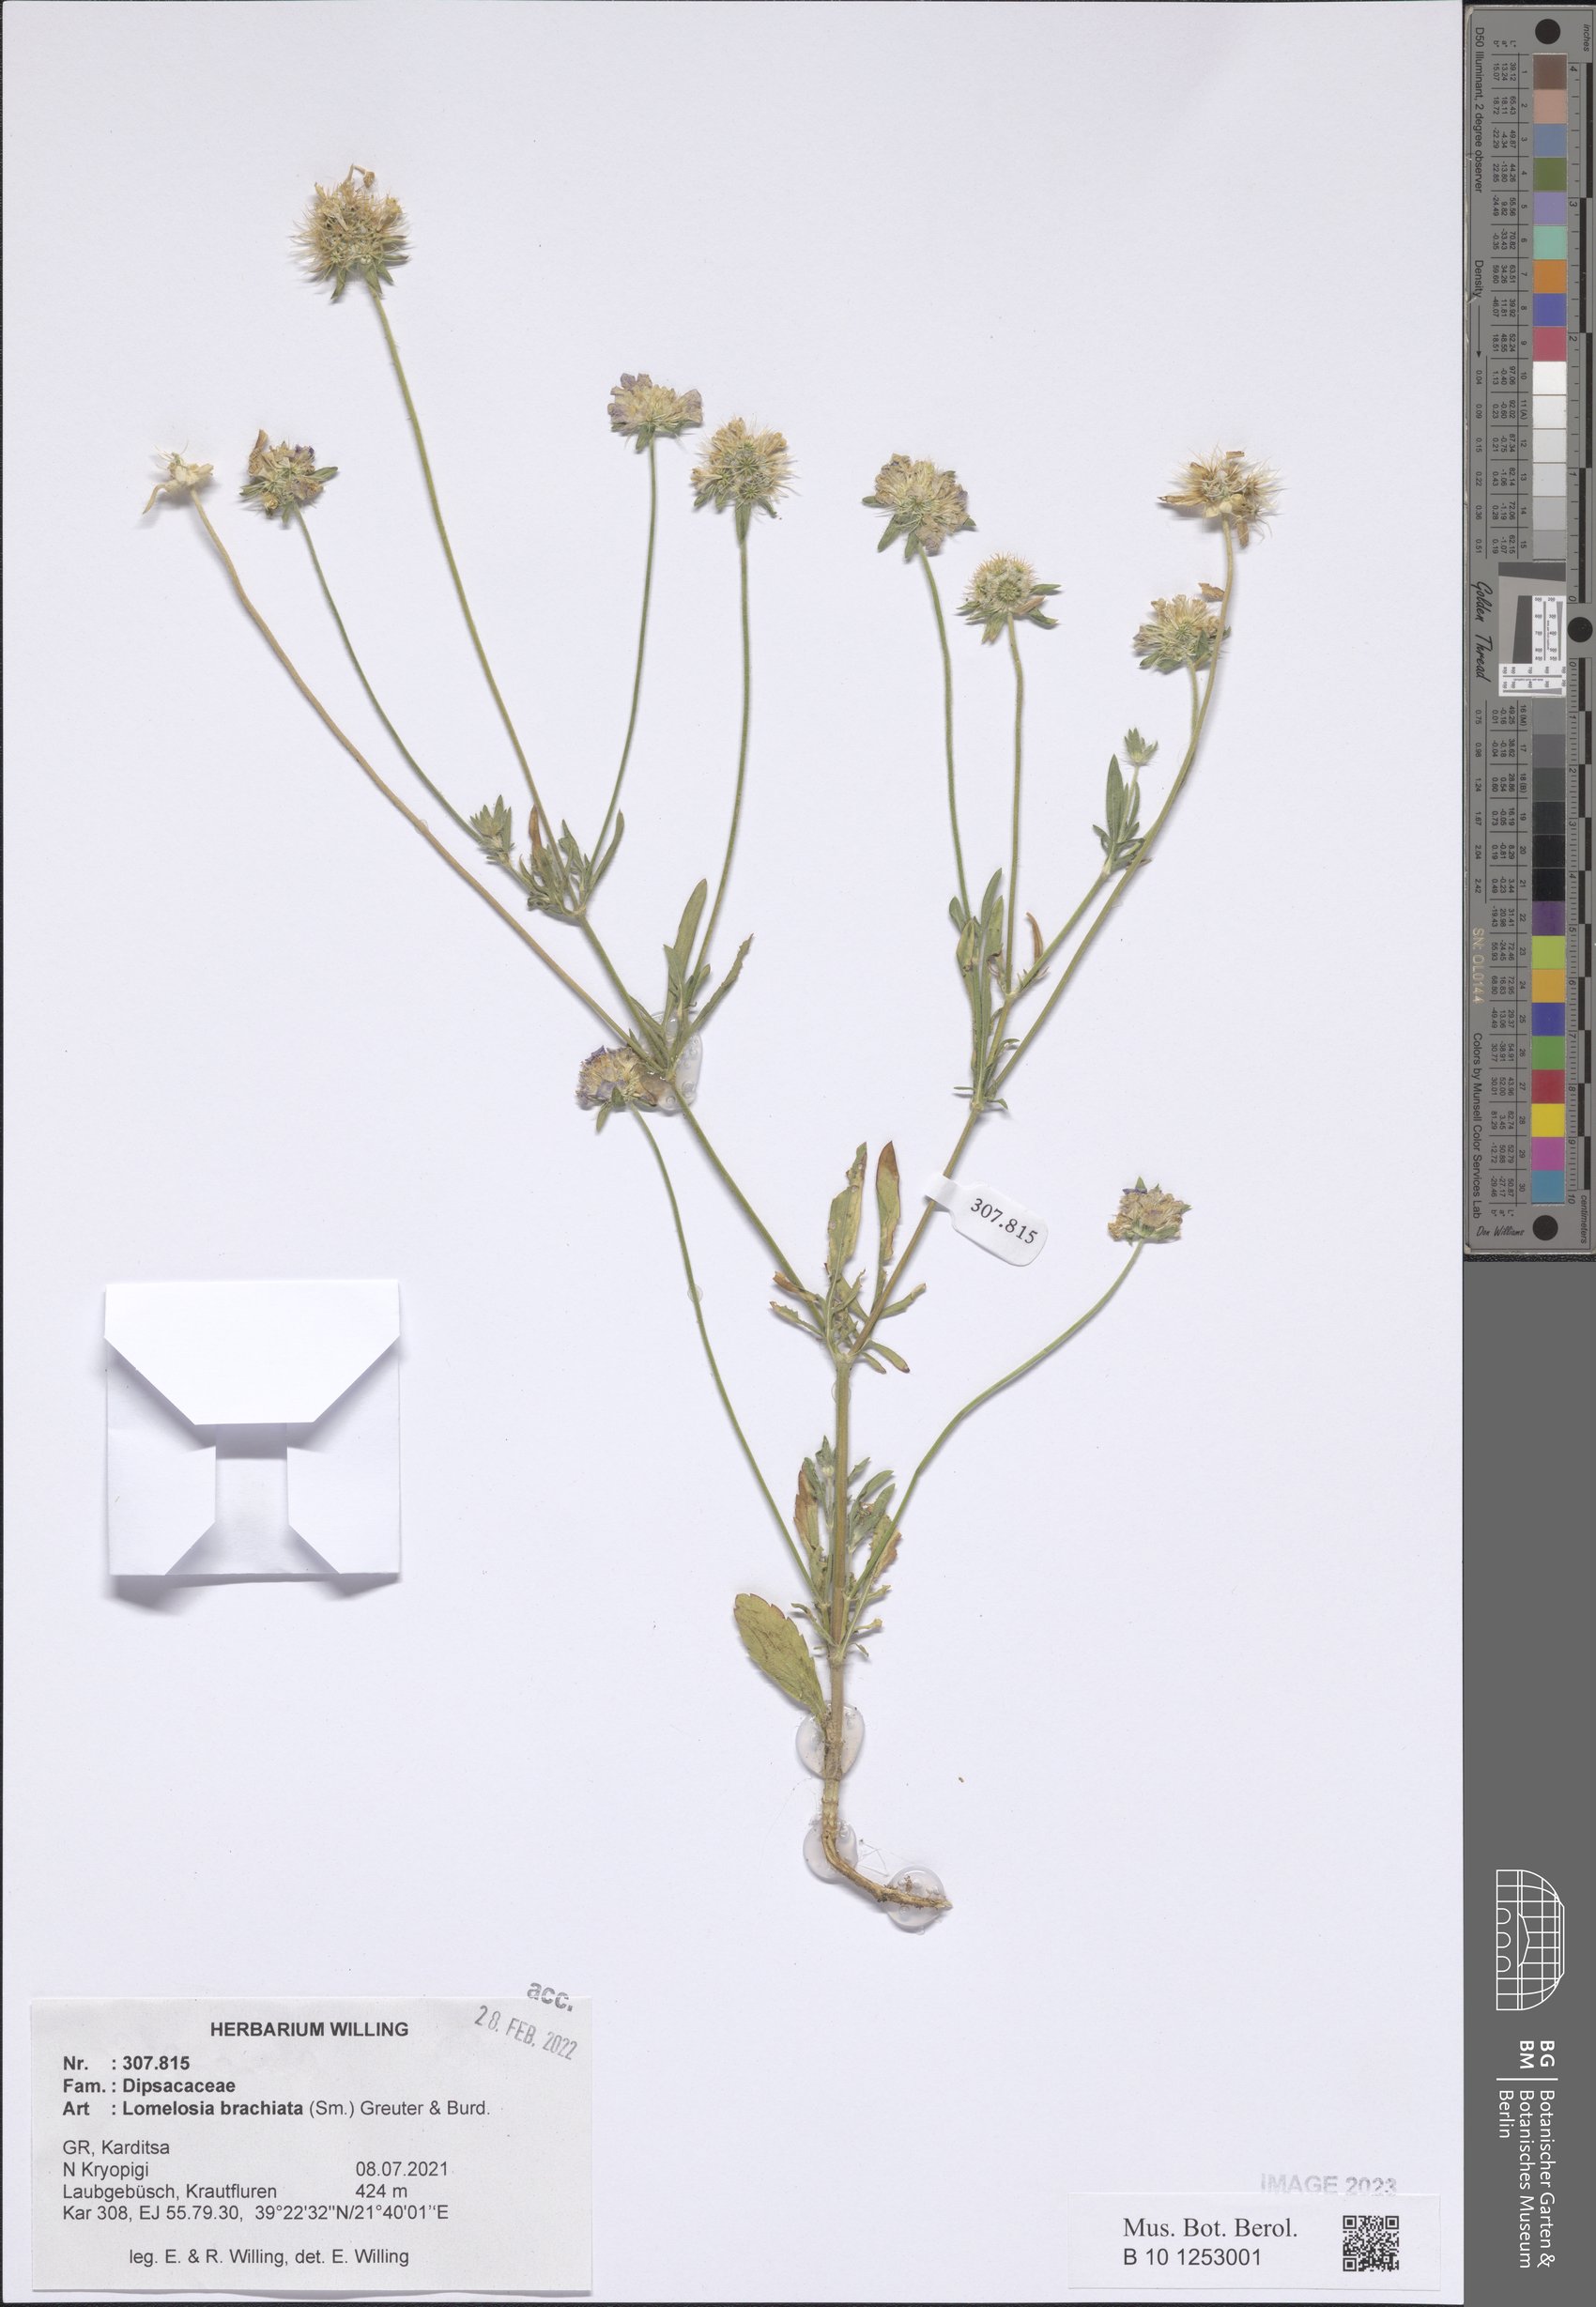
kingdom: Plantae
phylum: Tracheophyta
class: Magnoliopsida
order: Dipsacales
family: Caprifoliaceae
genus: Lomelosia
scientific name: Lomelosia brachiata
